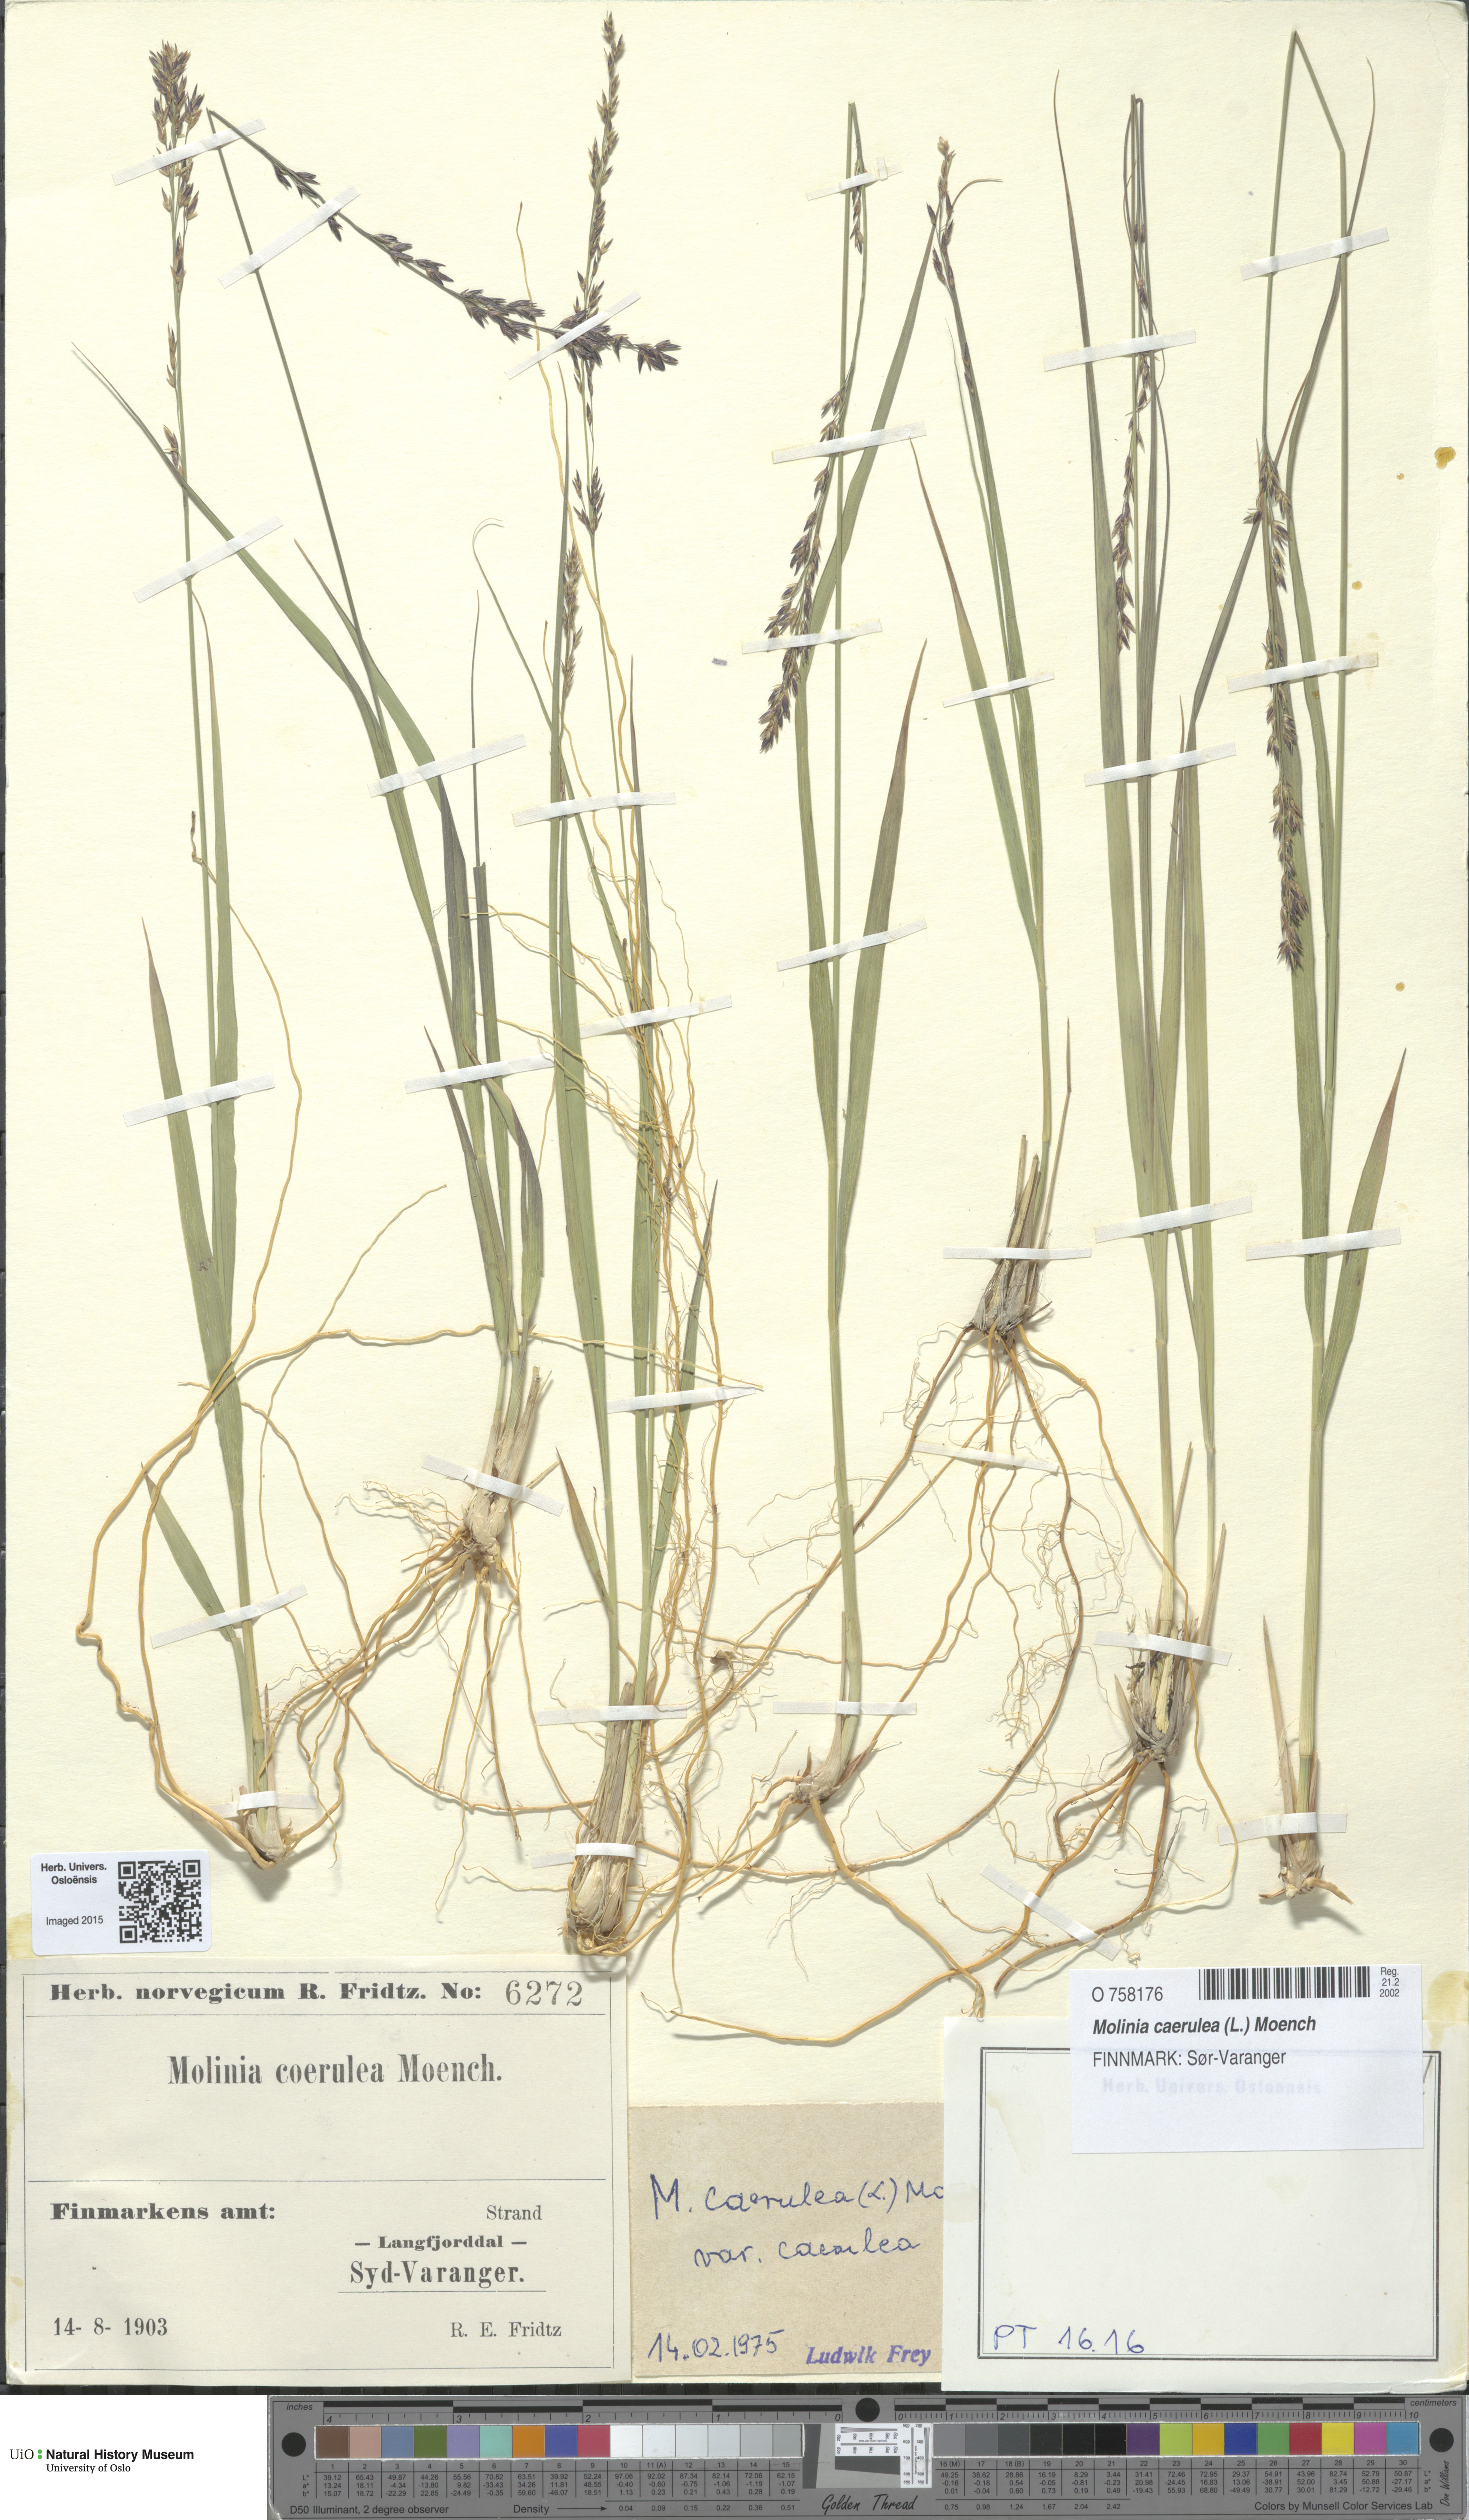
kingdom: Plantae
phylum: Tracheophyta
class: Liliopsida
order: Poales
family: Poaceae
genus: Molinia
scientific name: Molinia caerulea
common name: Purple moor-grass
